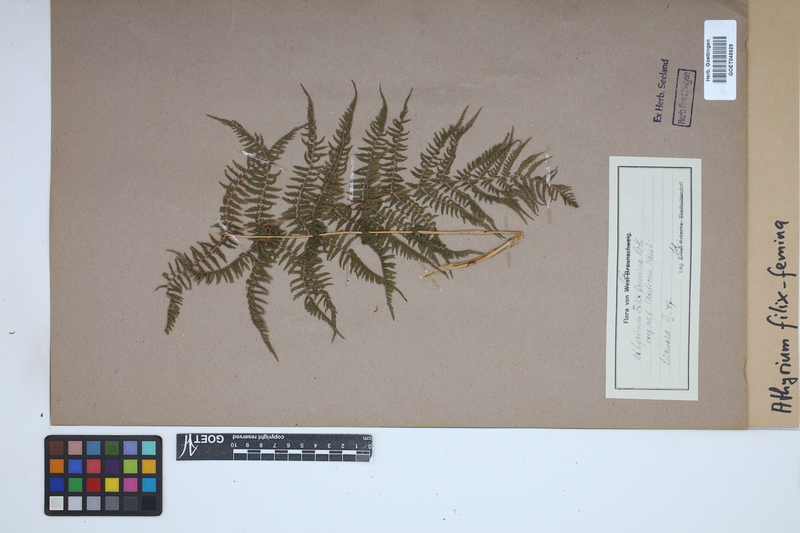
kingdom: Plantae
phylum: Tracheophyta
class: Polypodiopsida
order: Polypodiales
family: Athyriaceae
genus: Athyrium
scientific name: Athyrium filix-femina
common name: Lady fern
